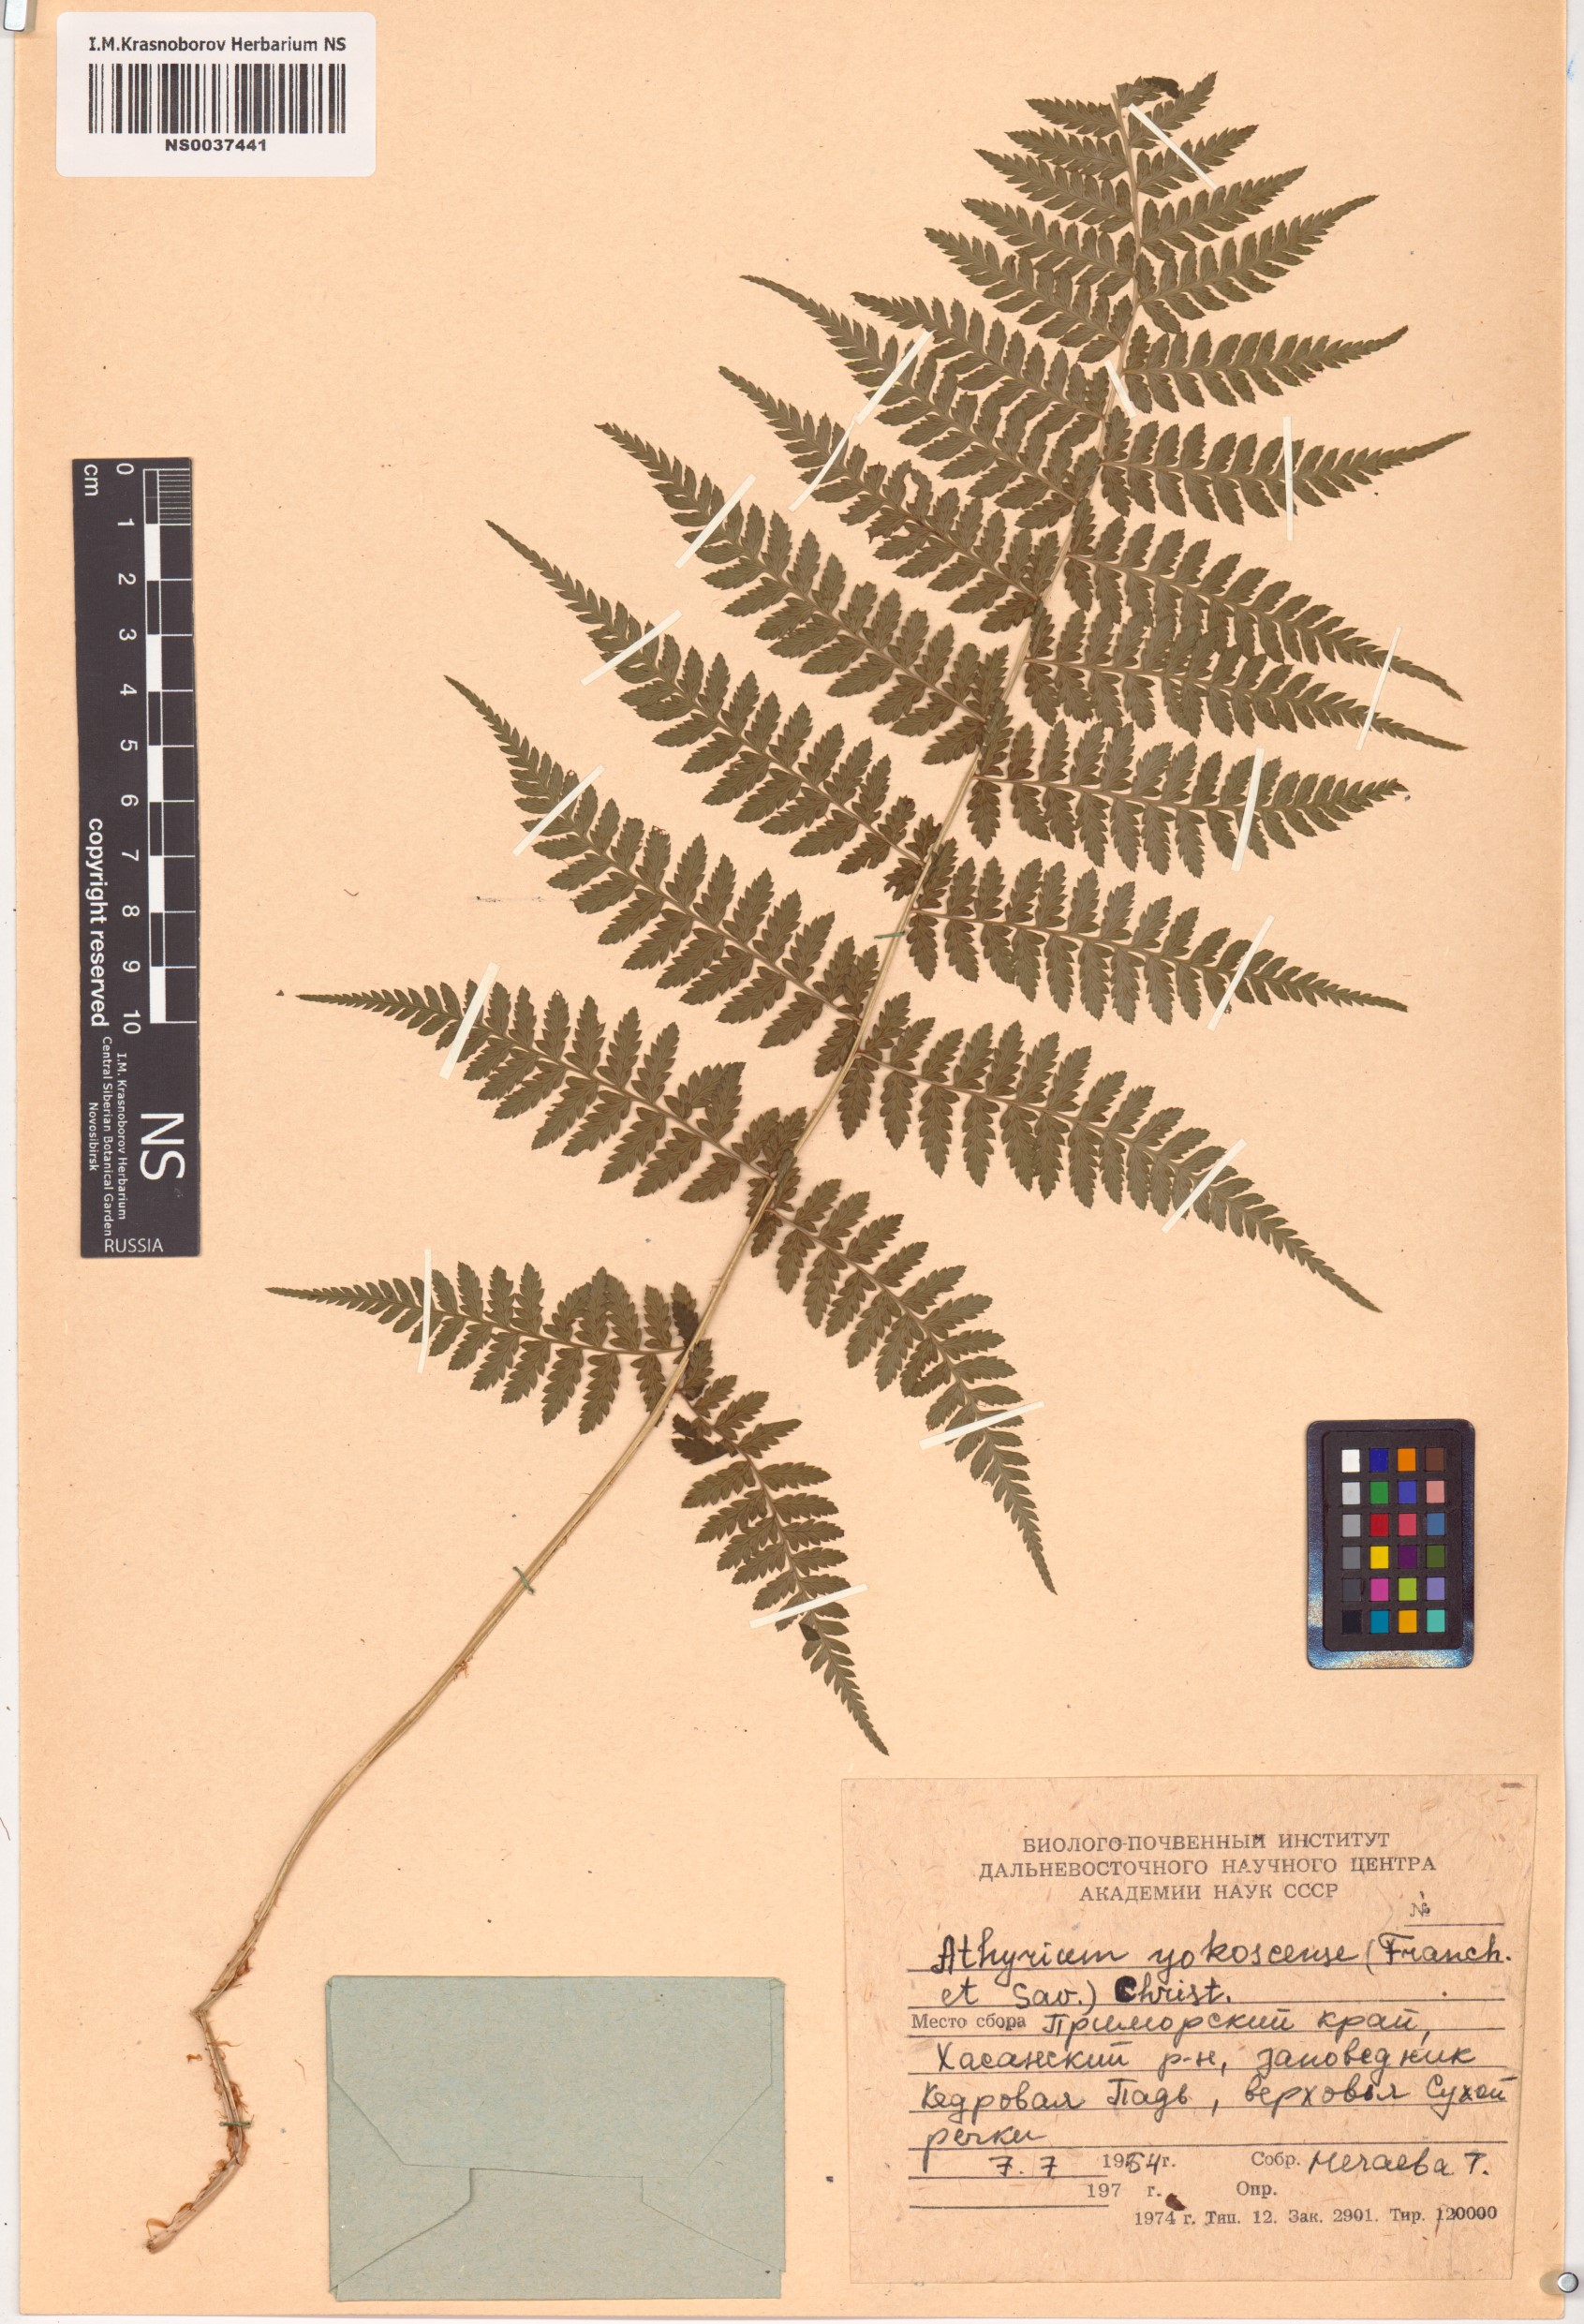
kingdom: Plantae
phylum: Tracheophyta
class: Polypodiopsida
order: Polypodiales
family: Athyriaceae
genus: Athyrium
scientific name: Athyrium yokoscense
